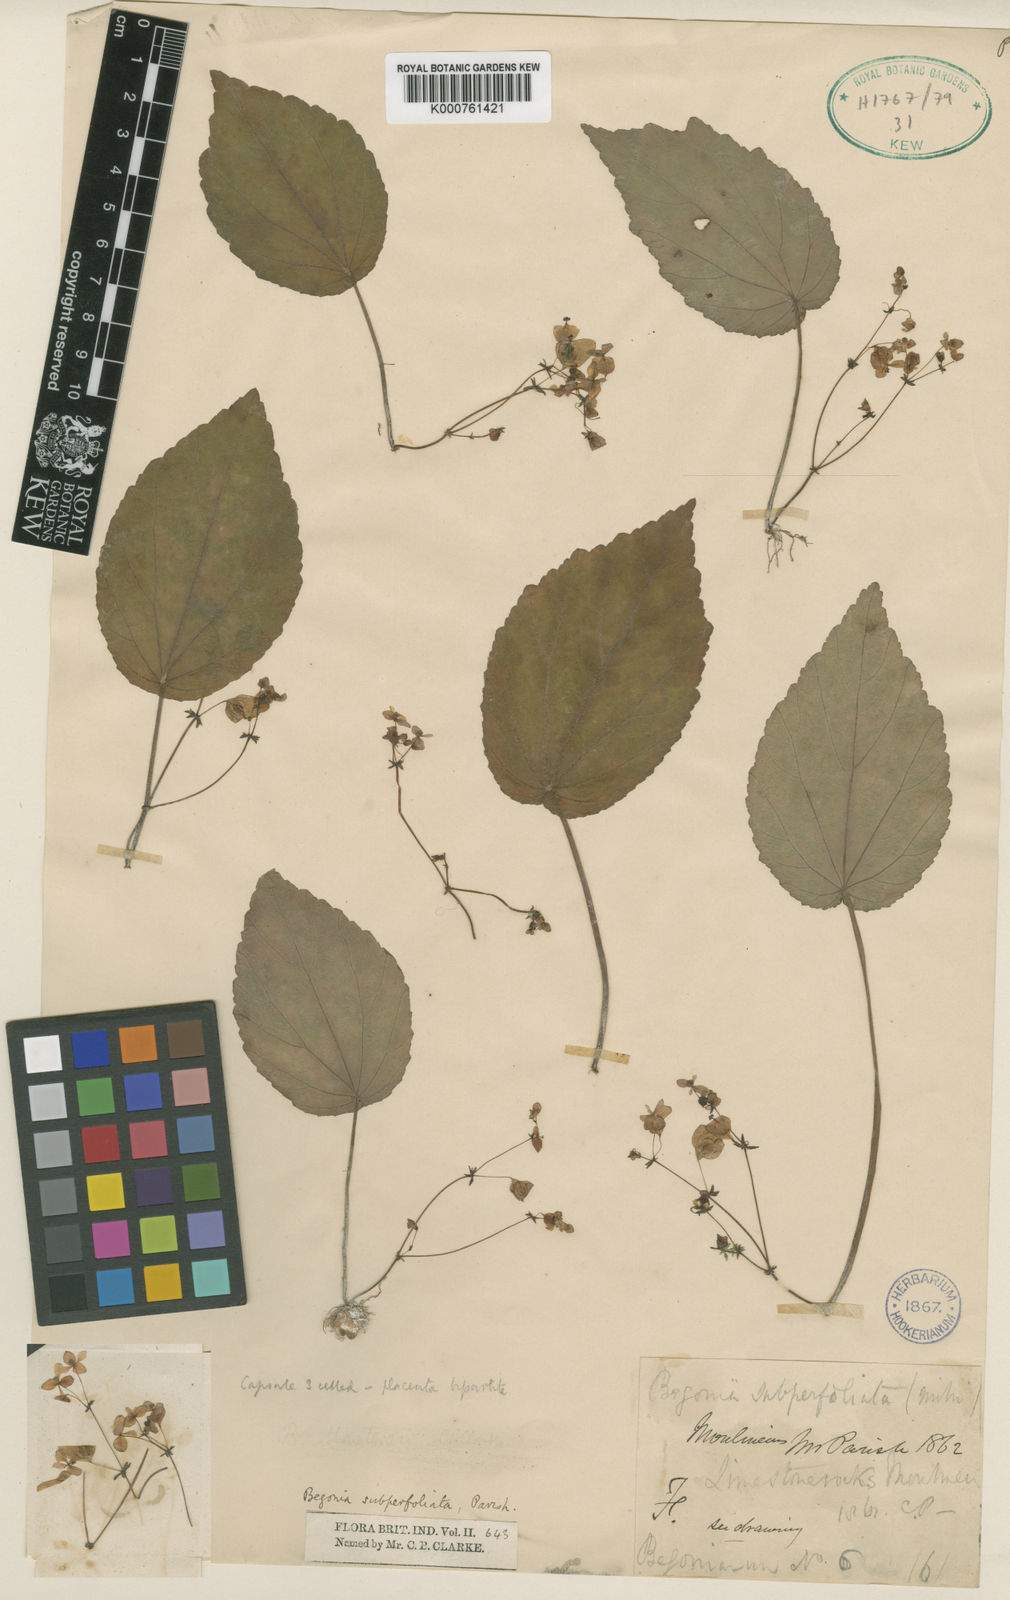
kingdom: Plantae
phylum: Tracheophyta
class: Magnoliopsida
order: Cucurbitales
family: Begoniaceae
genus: Begonia
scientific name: Begonia subperfoliata
